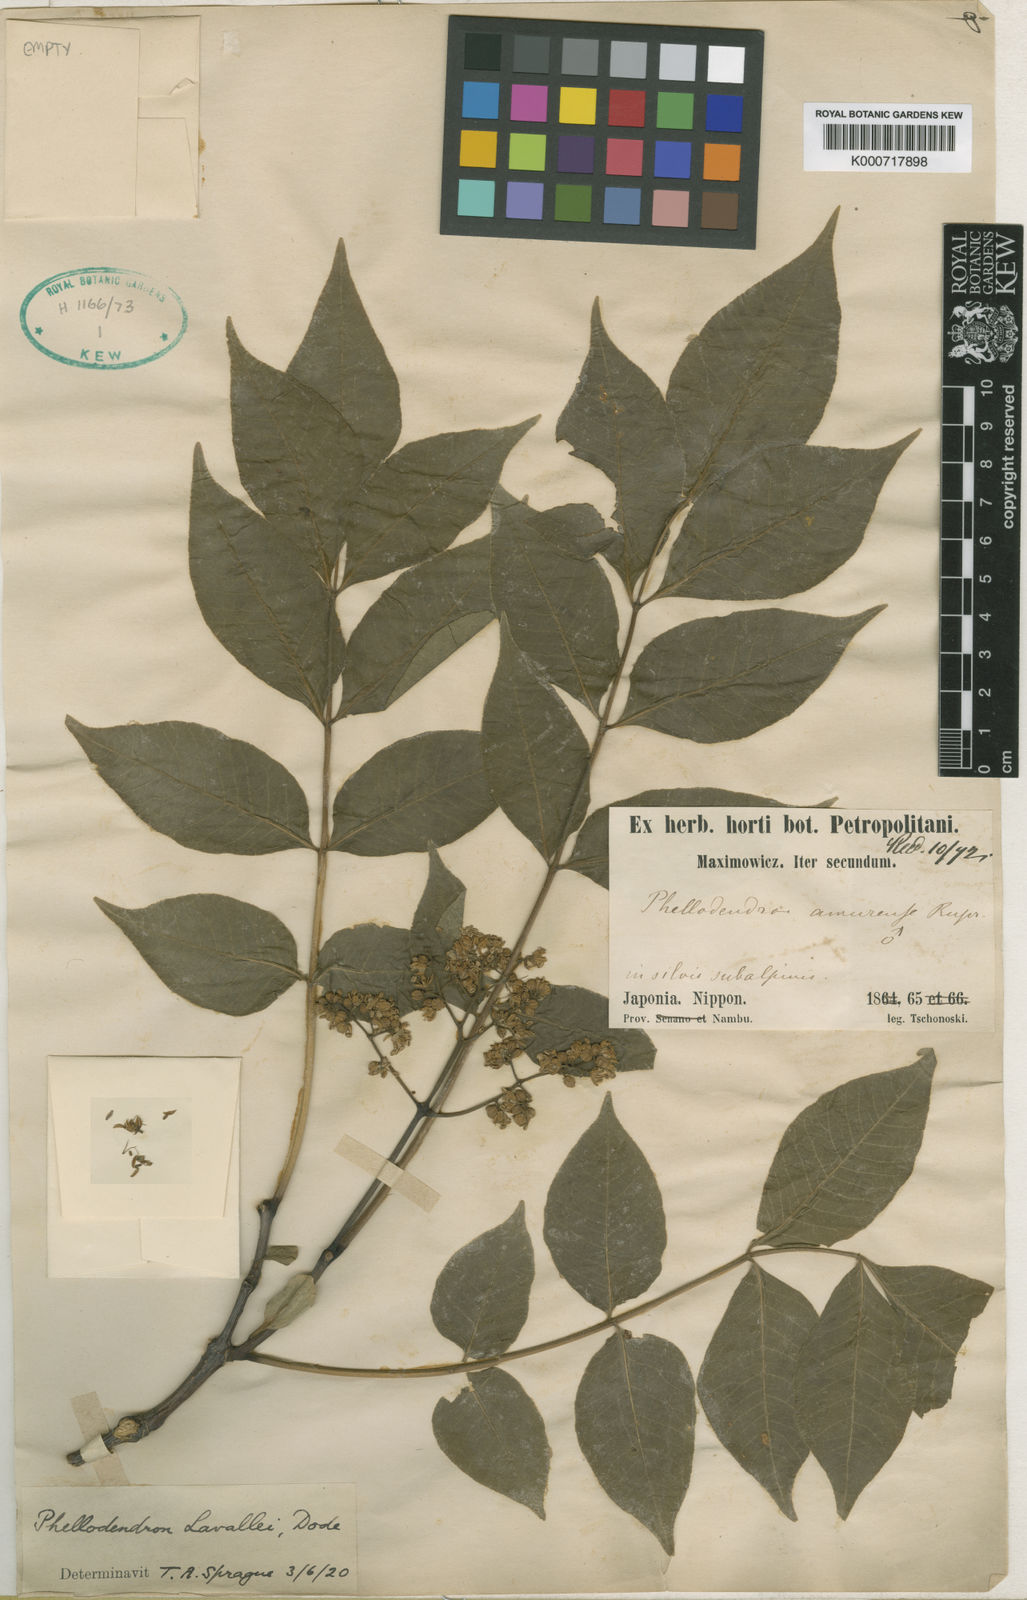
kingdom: Plantae
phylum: Tracheophyta
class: Magnoliopsida
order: Sapindales
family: Rutaceae
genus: Phellodendron
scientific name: Phellodendron amurense
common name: Amur corktree
